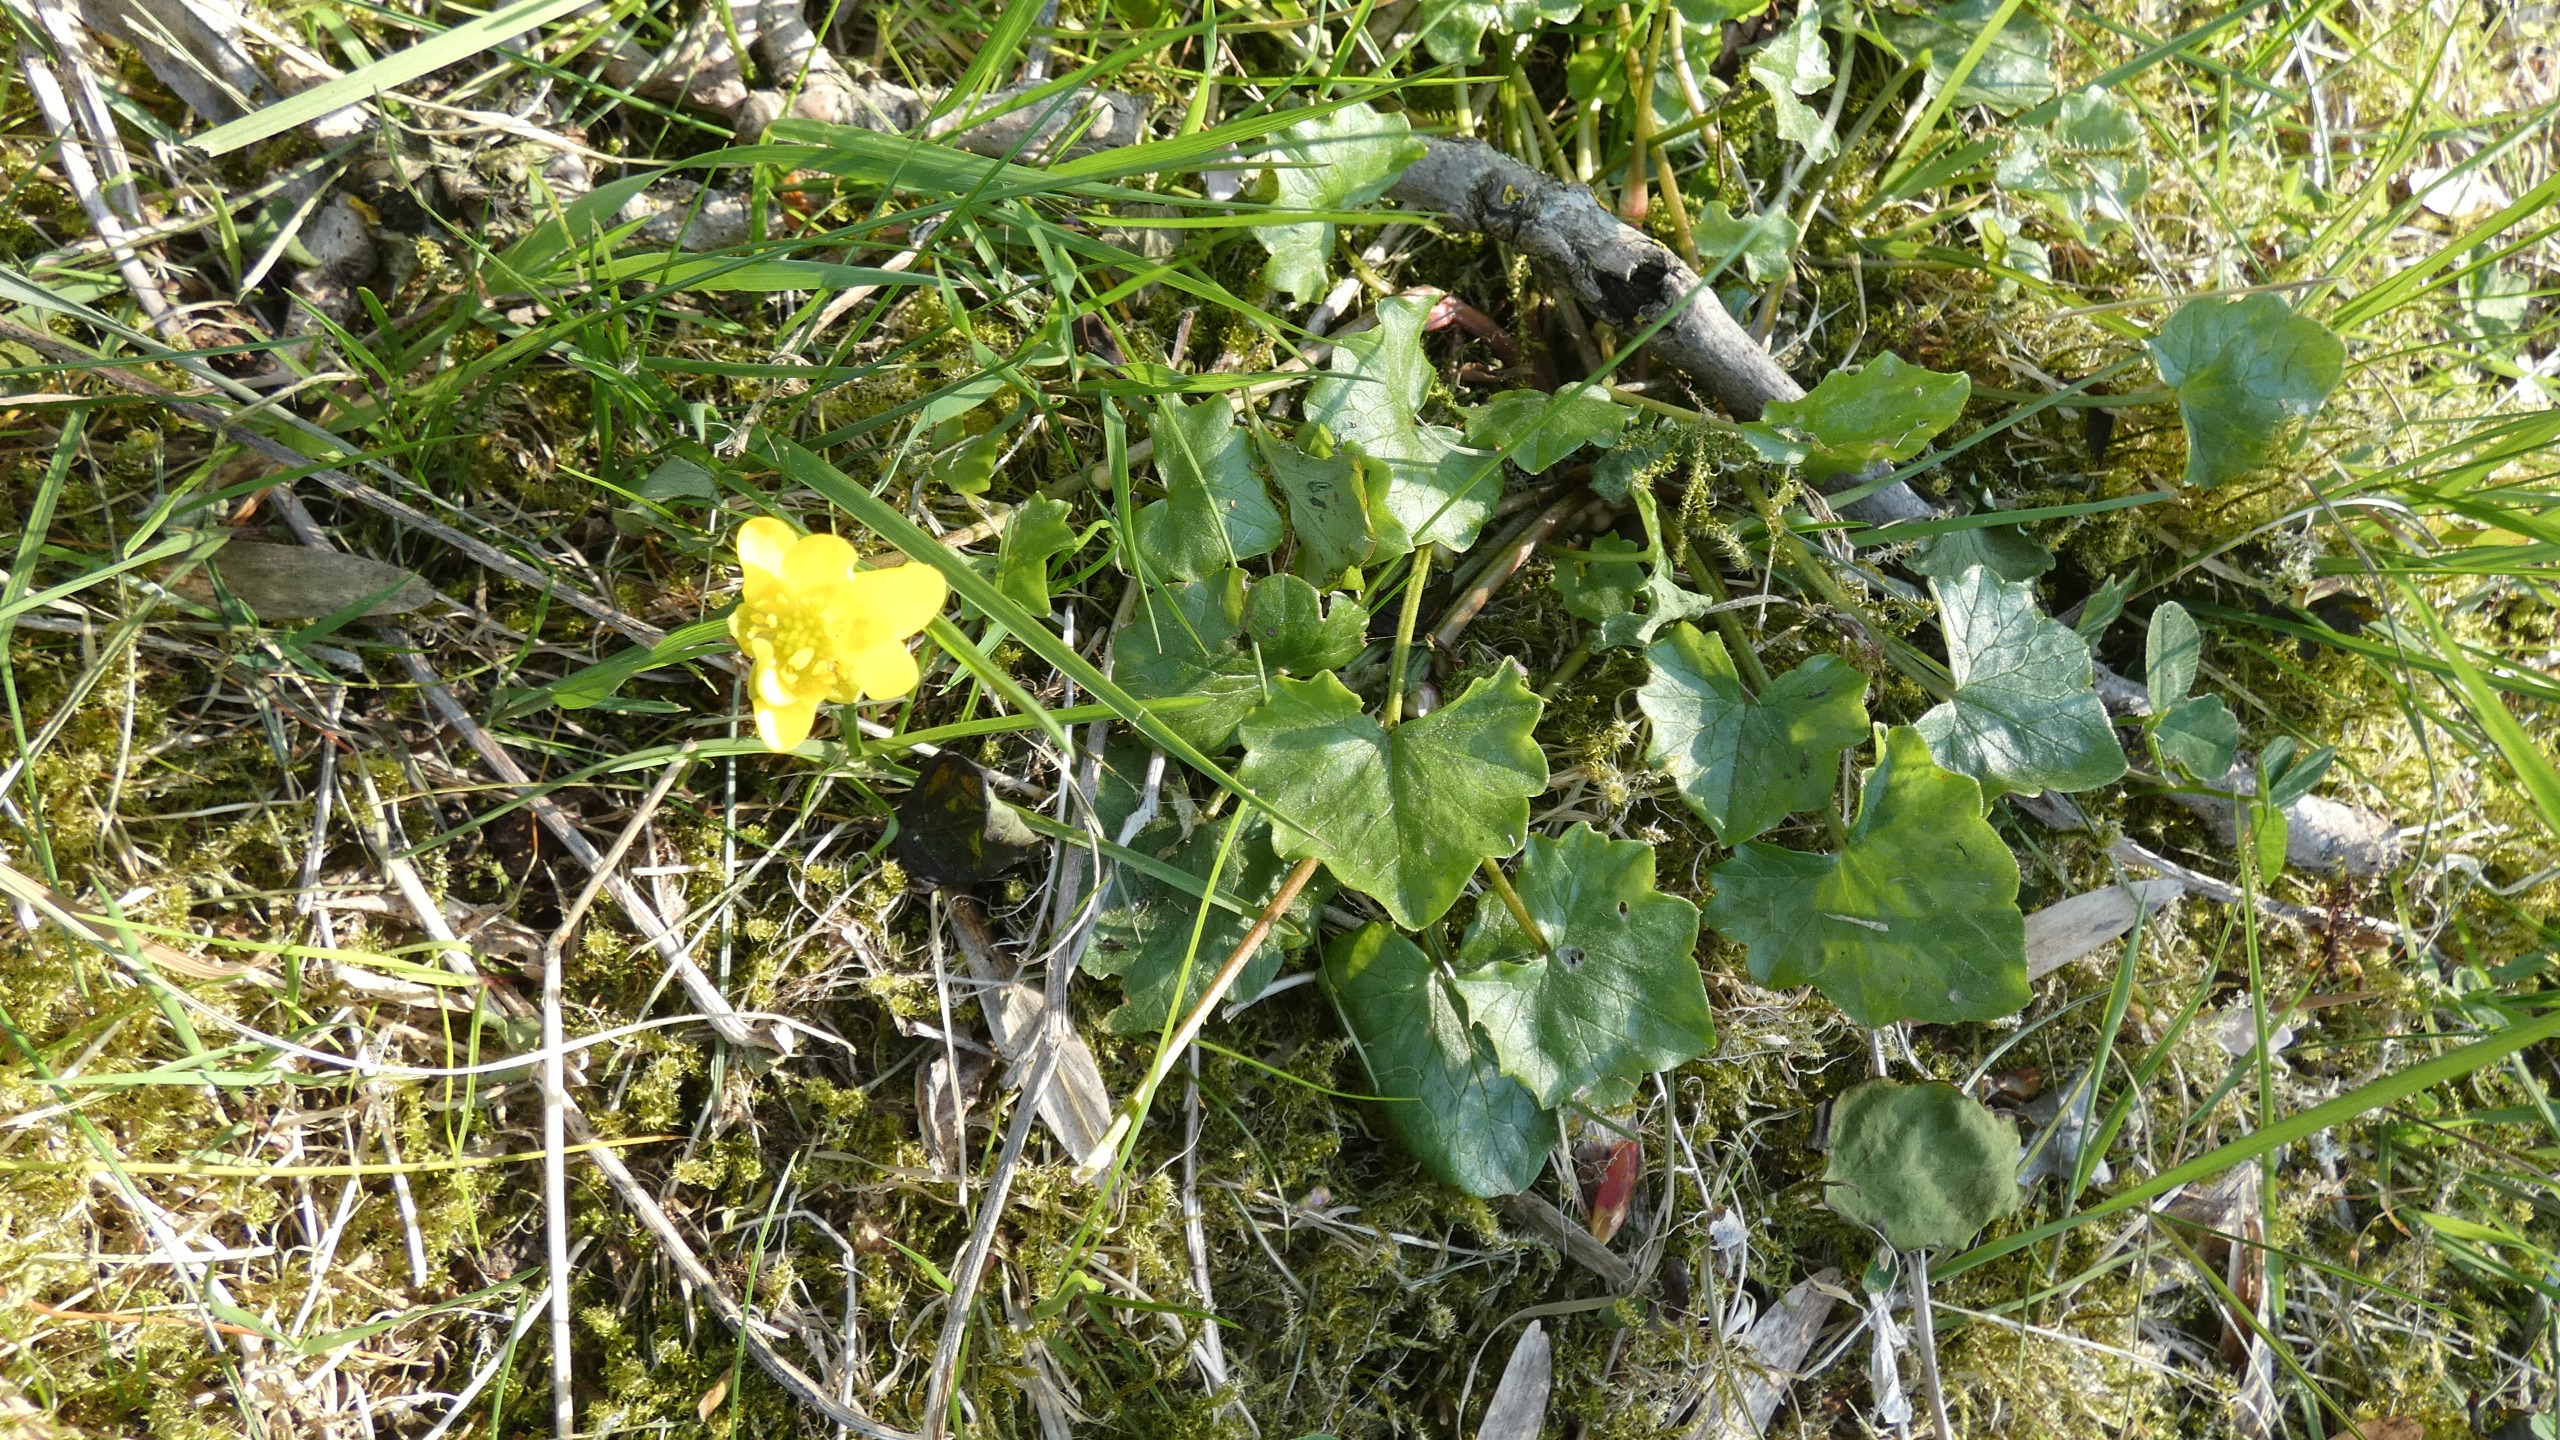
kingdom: Plantae
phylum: Tracheophyta
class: Magnoliopsida
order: Ranunculales
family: Ranunculaceae
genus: Ficaria
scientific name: Ficaria verna
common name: Vorterod
